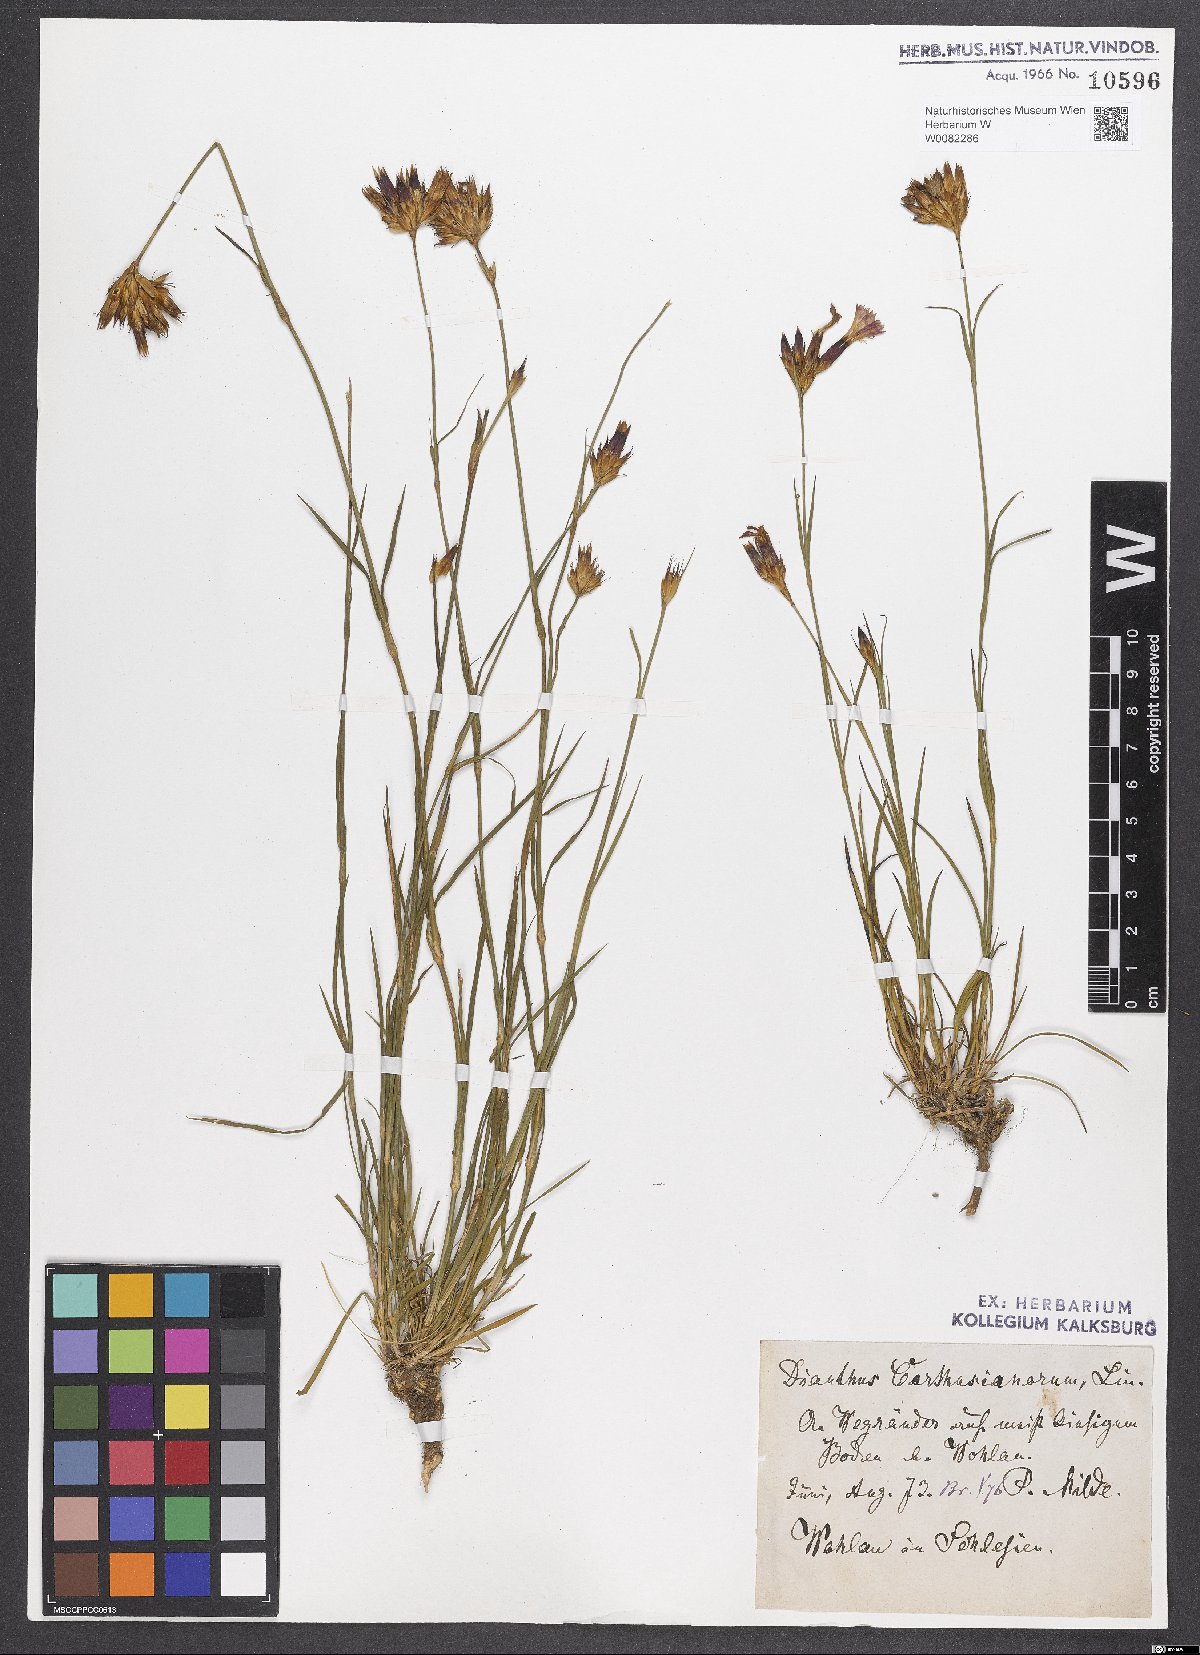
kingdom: Plantae
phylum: Tracheophyta
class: Magnoliopsida
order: Caryophyllales
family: Caryophyllaceae
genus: Dianthus
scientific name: Dianthus carthusianorum
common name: Carthusian pink
